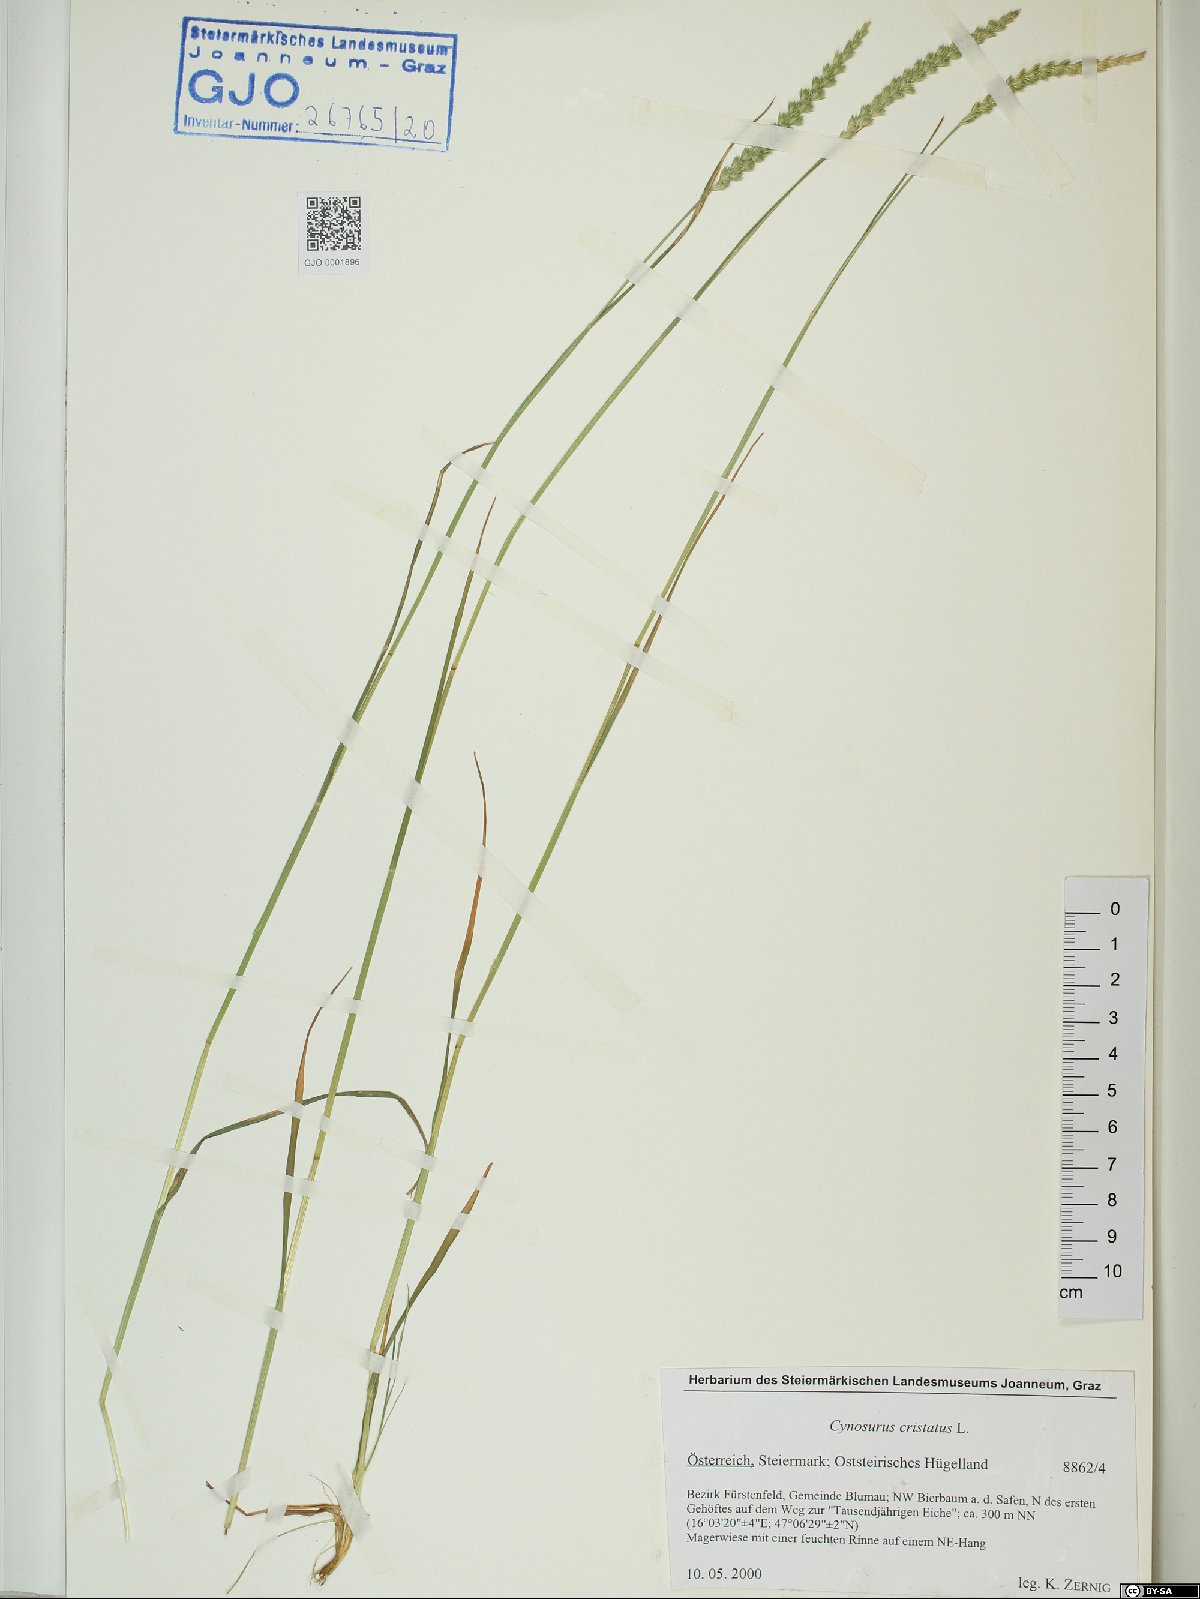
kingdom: Plantae
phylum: Tracheophyta
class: Liliopsida
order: Poales
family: Poaceae
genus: Cynosurus
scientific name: Cynosurus cristatus
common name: Crested dog's-tail
